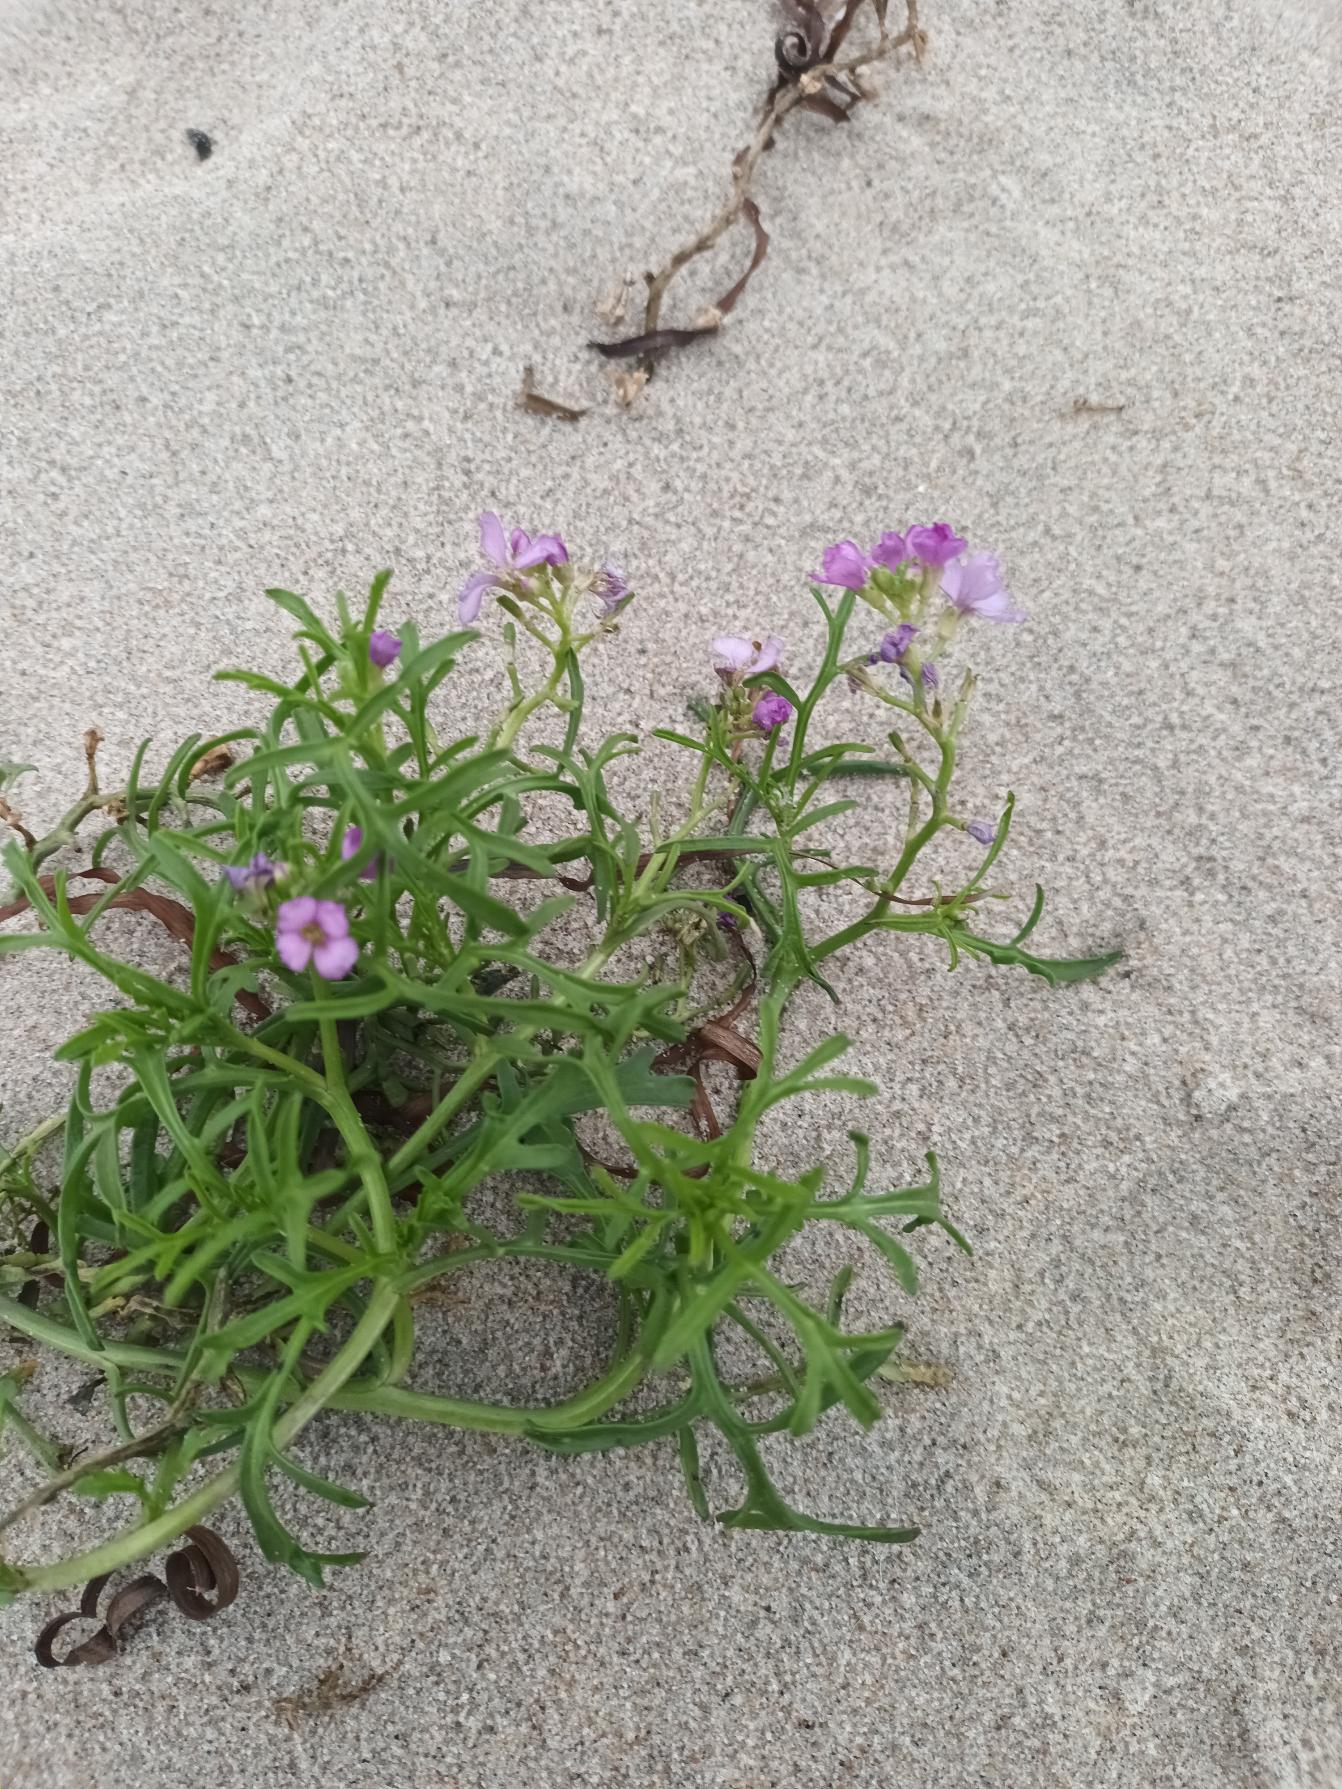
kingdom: Plantae
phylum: Tracheophyta
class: Magnoliopsida
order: Brassicales
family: Brassicaceae
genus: Cakile
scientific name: Cakile maritima
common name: Strandsennep
